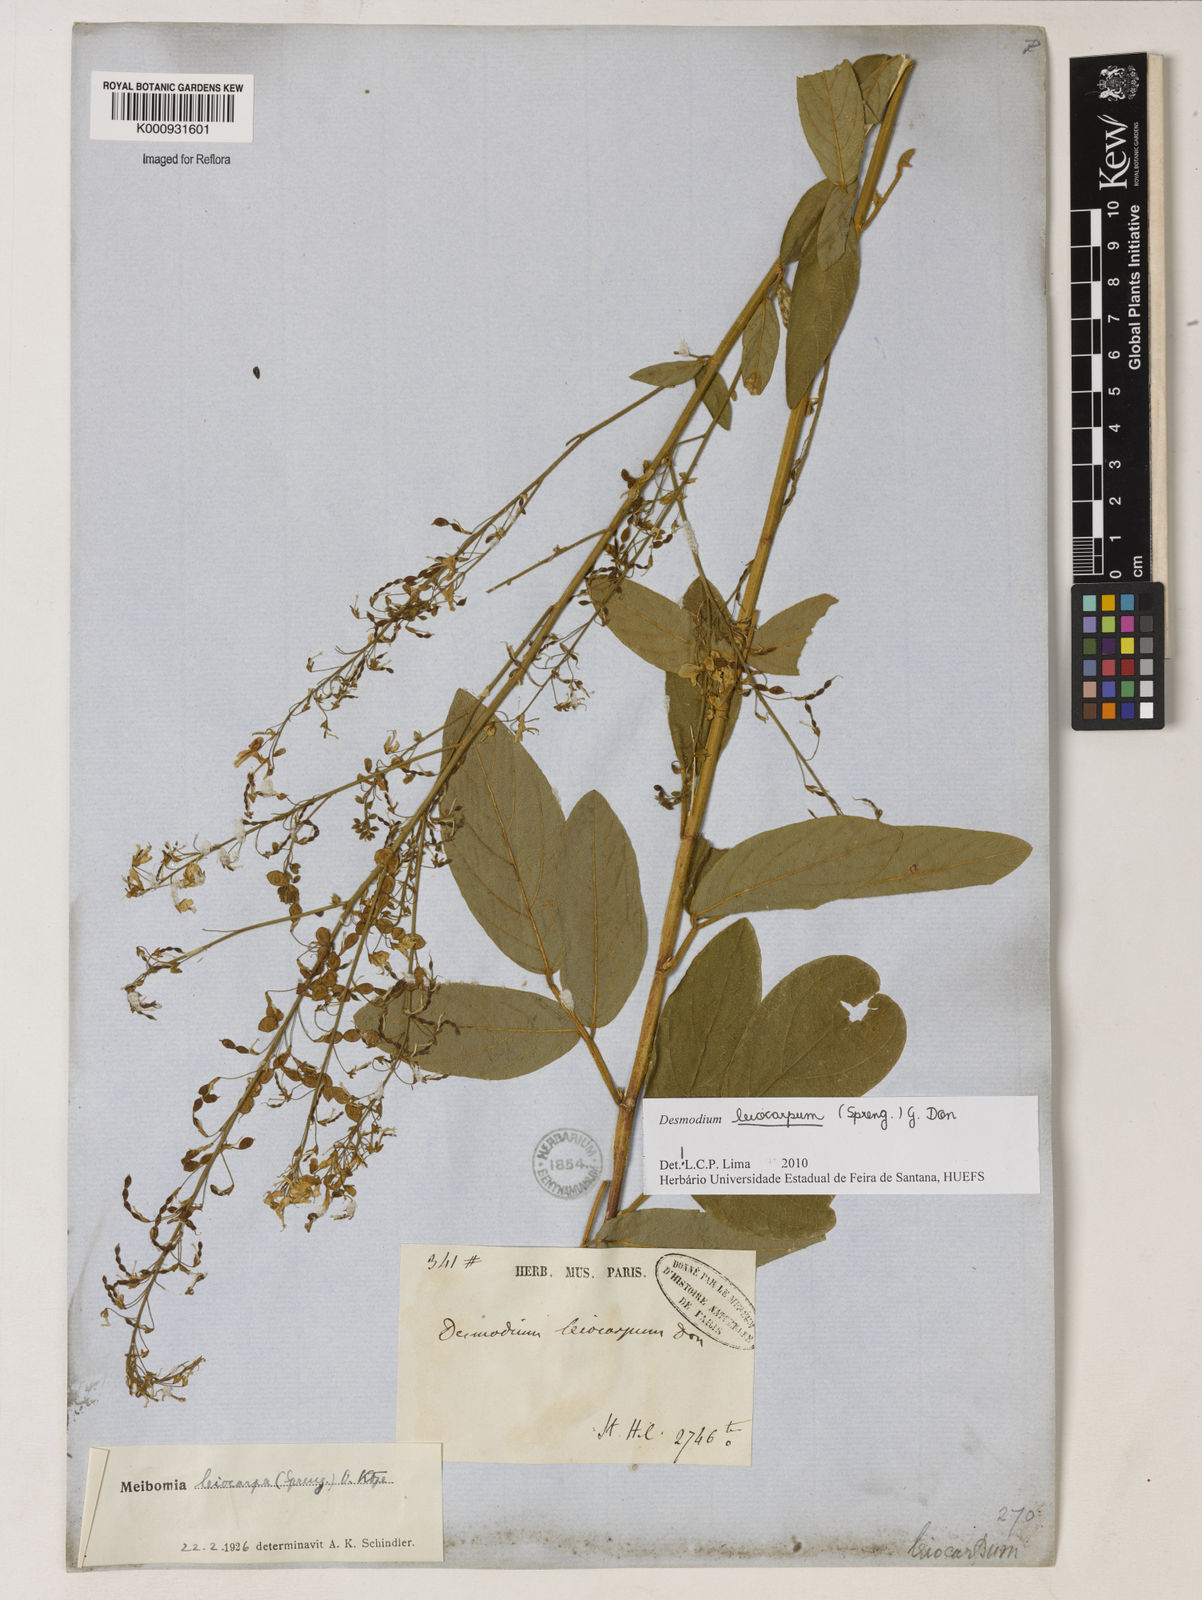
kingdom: Plantae
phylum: Tracheophyta
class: Magnoliopsida
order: Fabales
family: Fabaceae
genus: Desmodium
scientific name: Desmodium leiocarpum
